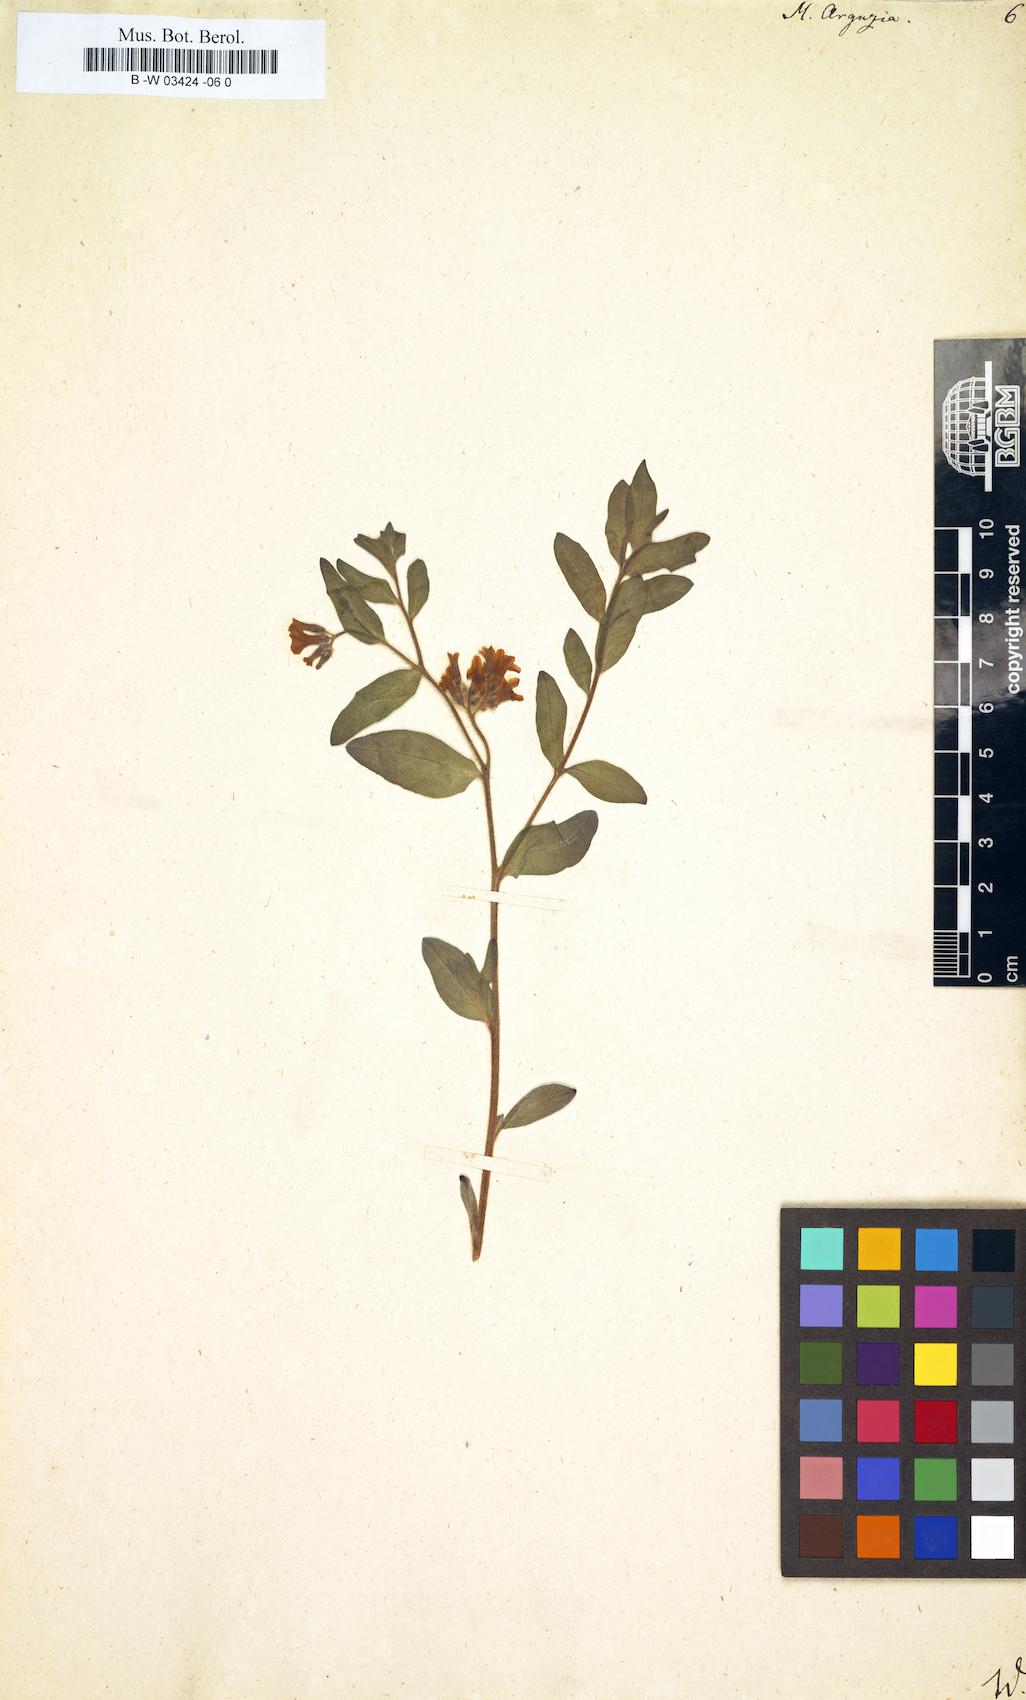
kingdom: Plantae
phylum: Tracheophyta
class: Magnoliopsida
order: Boraginales
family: Heliotropiaceae
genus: Tournefortia
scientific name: Tournefortia sibirica
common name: Siberian sea rosemary
